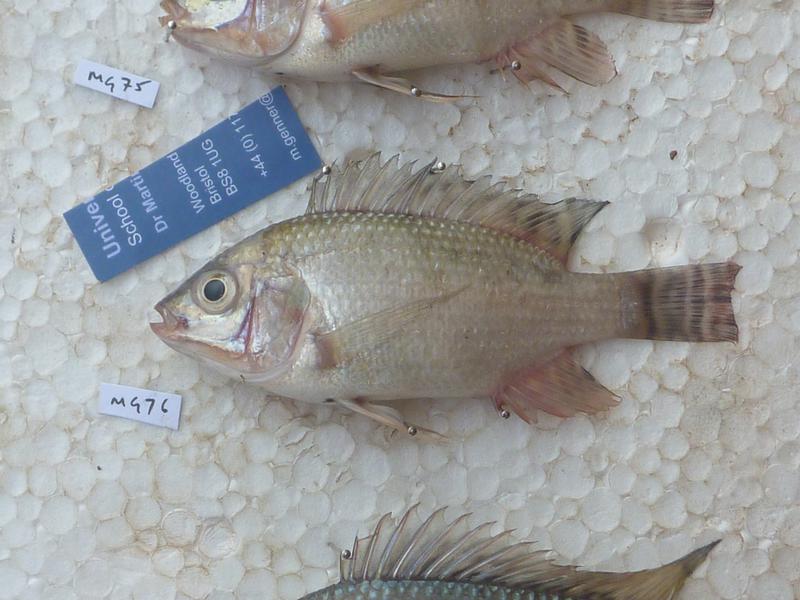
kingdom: Animalia
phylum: Chordata
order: Perciformes
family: Cichlidae
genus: Oreochromis
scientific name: Oreochromis niloticus
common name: Nile tilapia
